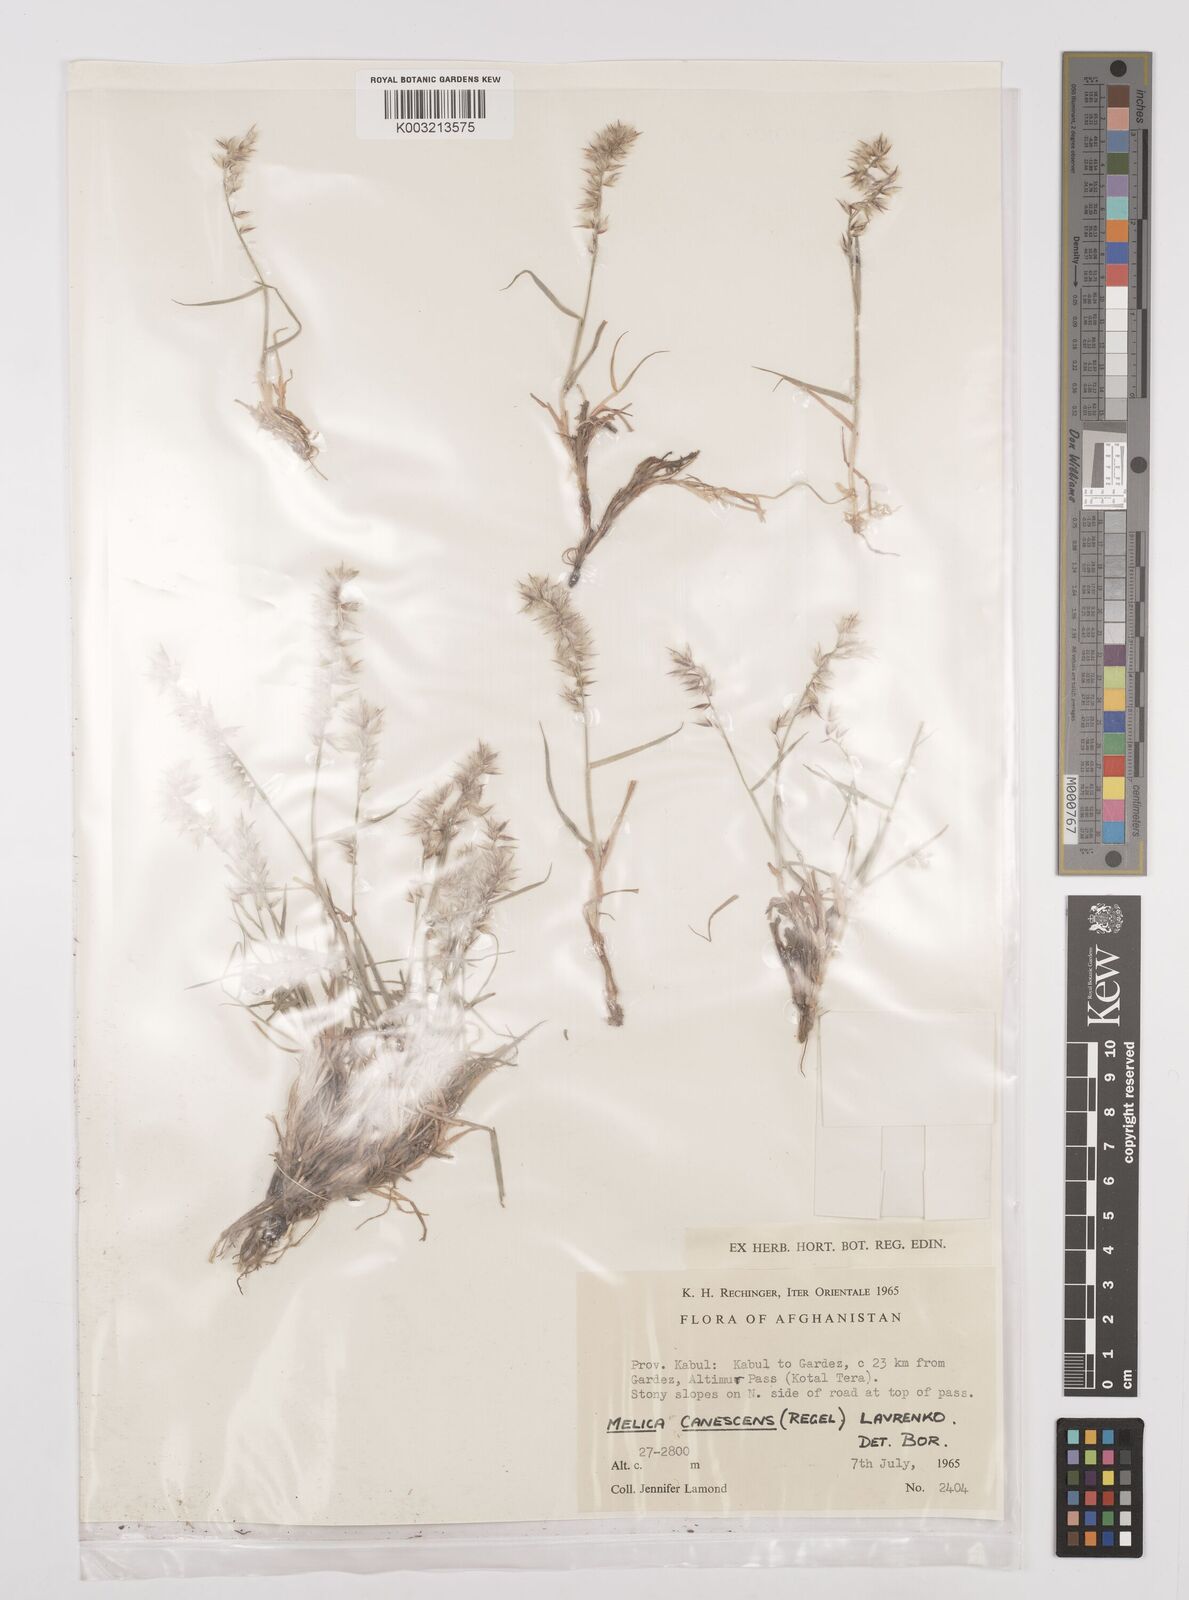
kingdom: Plantae
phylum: Tracheophyta
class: Liliopsida
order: Poales
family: Poaceae
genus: Melica
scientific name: Melica persica
